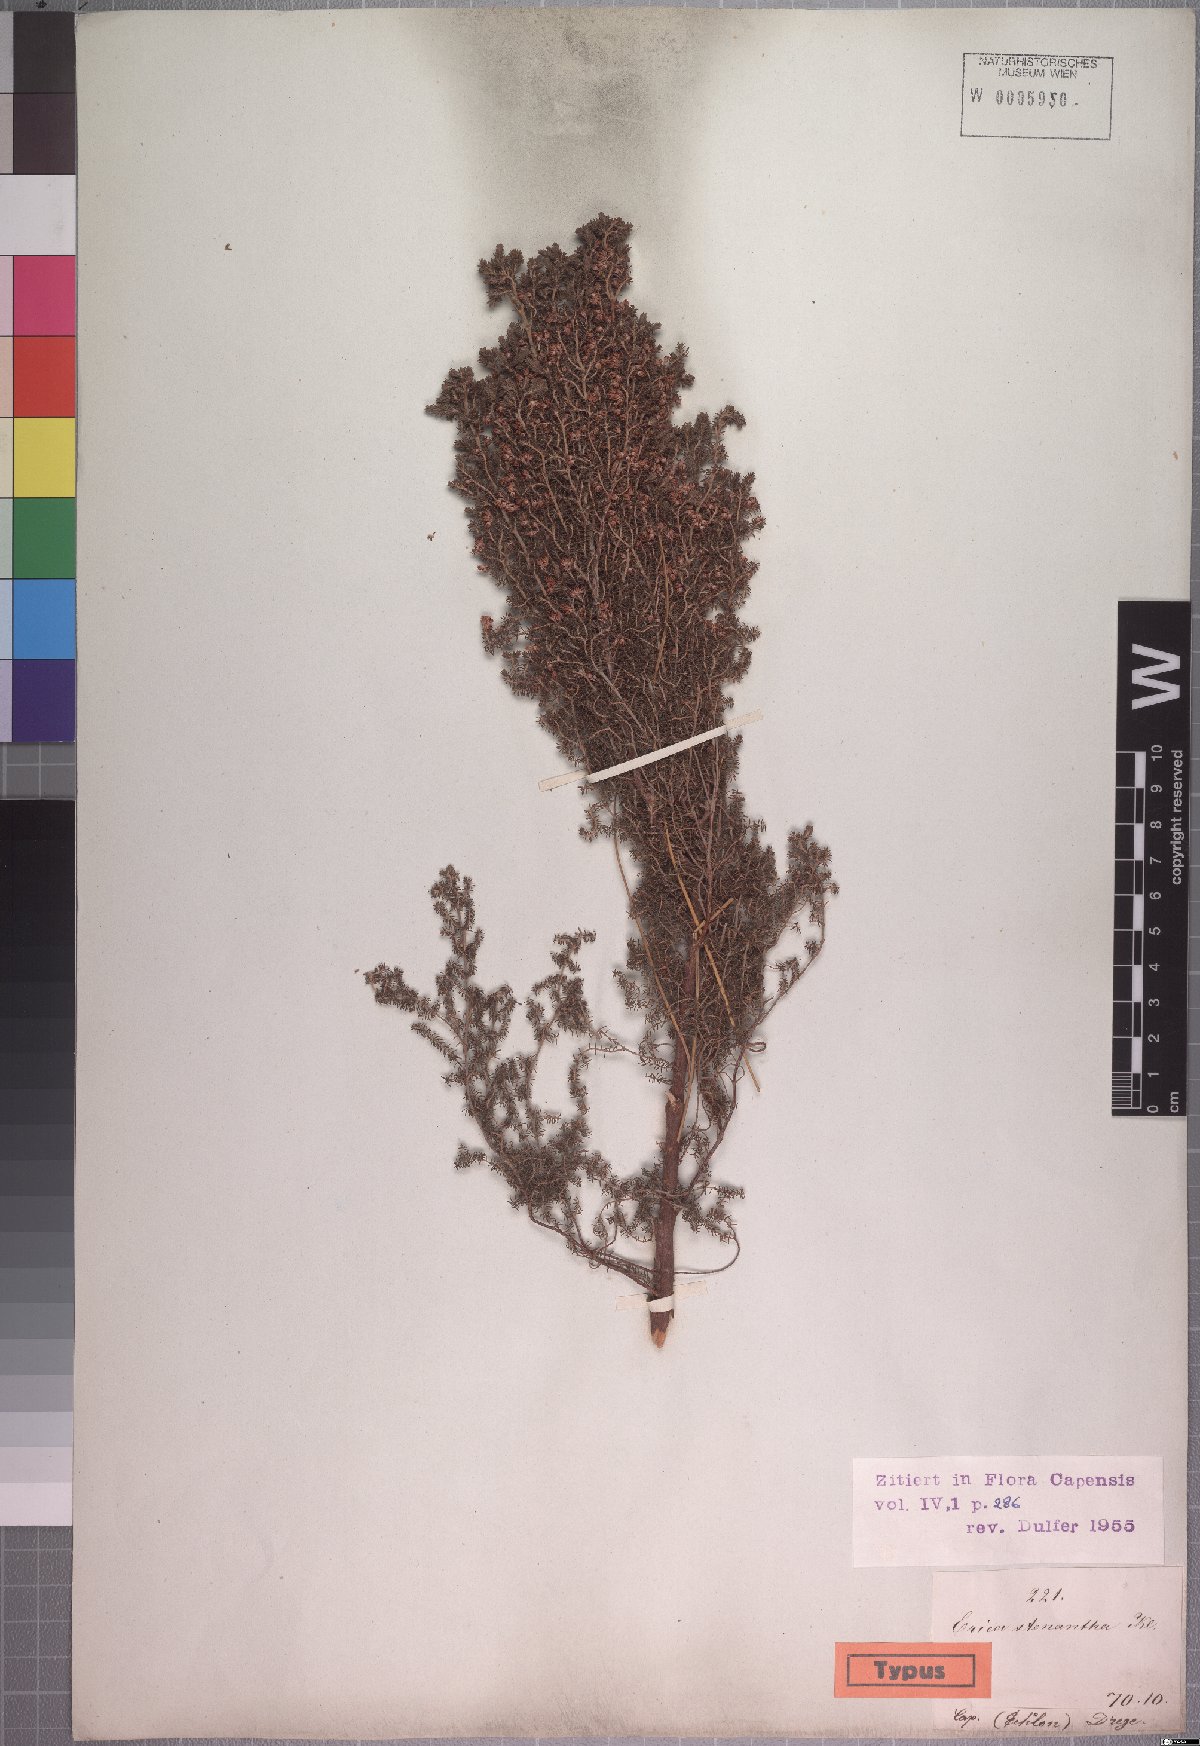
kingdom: Plantae
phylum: Tracheophyta
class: Magnoliopsida
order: Ericales
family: Ericaceae
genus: Erica
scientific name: Erica stenantha
